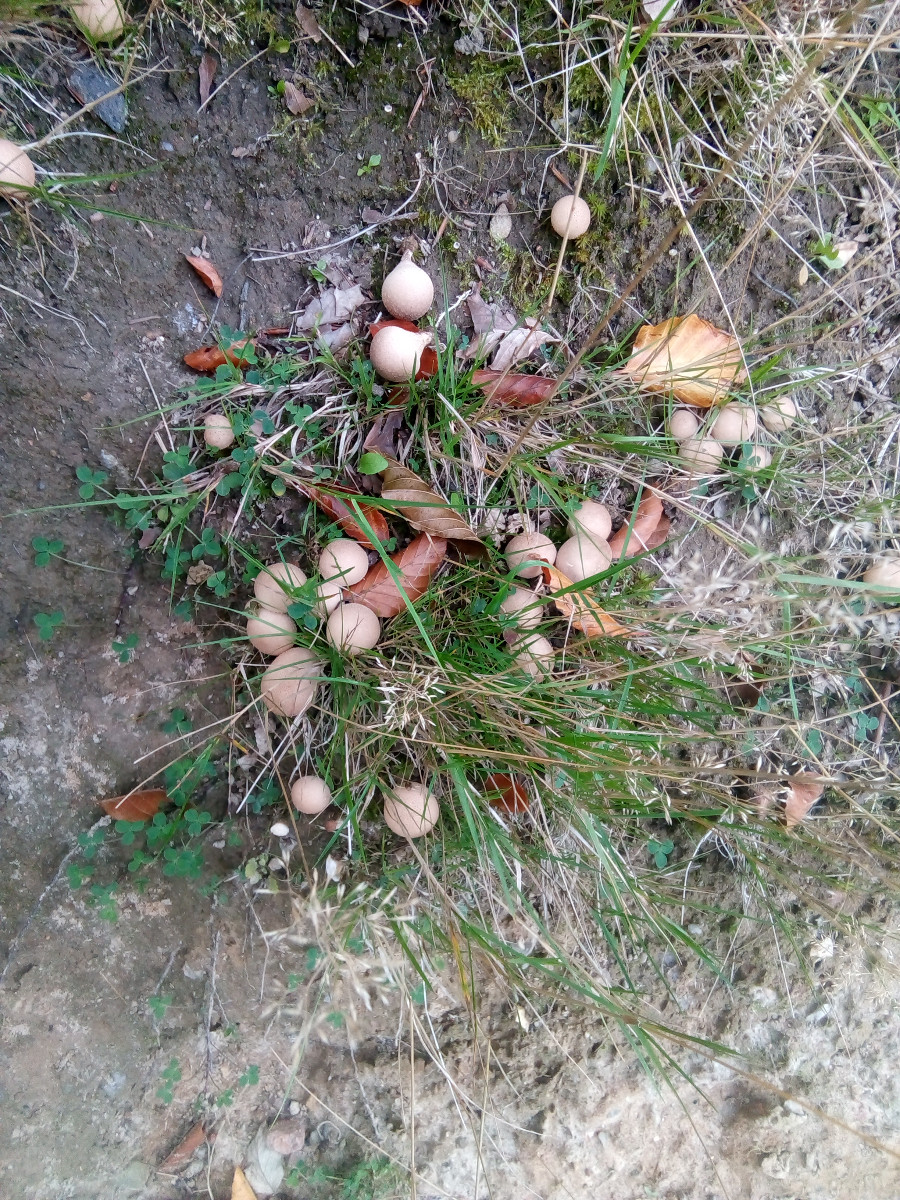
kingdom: Fungi
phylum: Basidiomycota
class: Agaricomycetes
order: Agaricales
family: Lycoperdaceae
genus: Apioperdon
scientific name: Apioperdon pyriforme
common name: pære-støvbold
